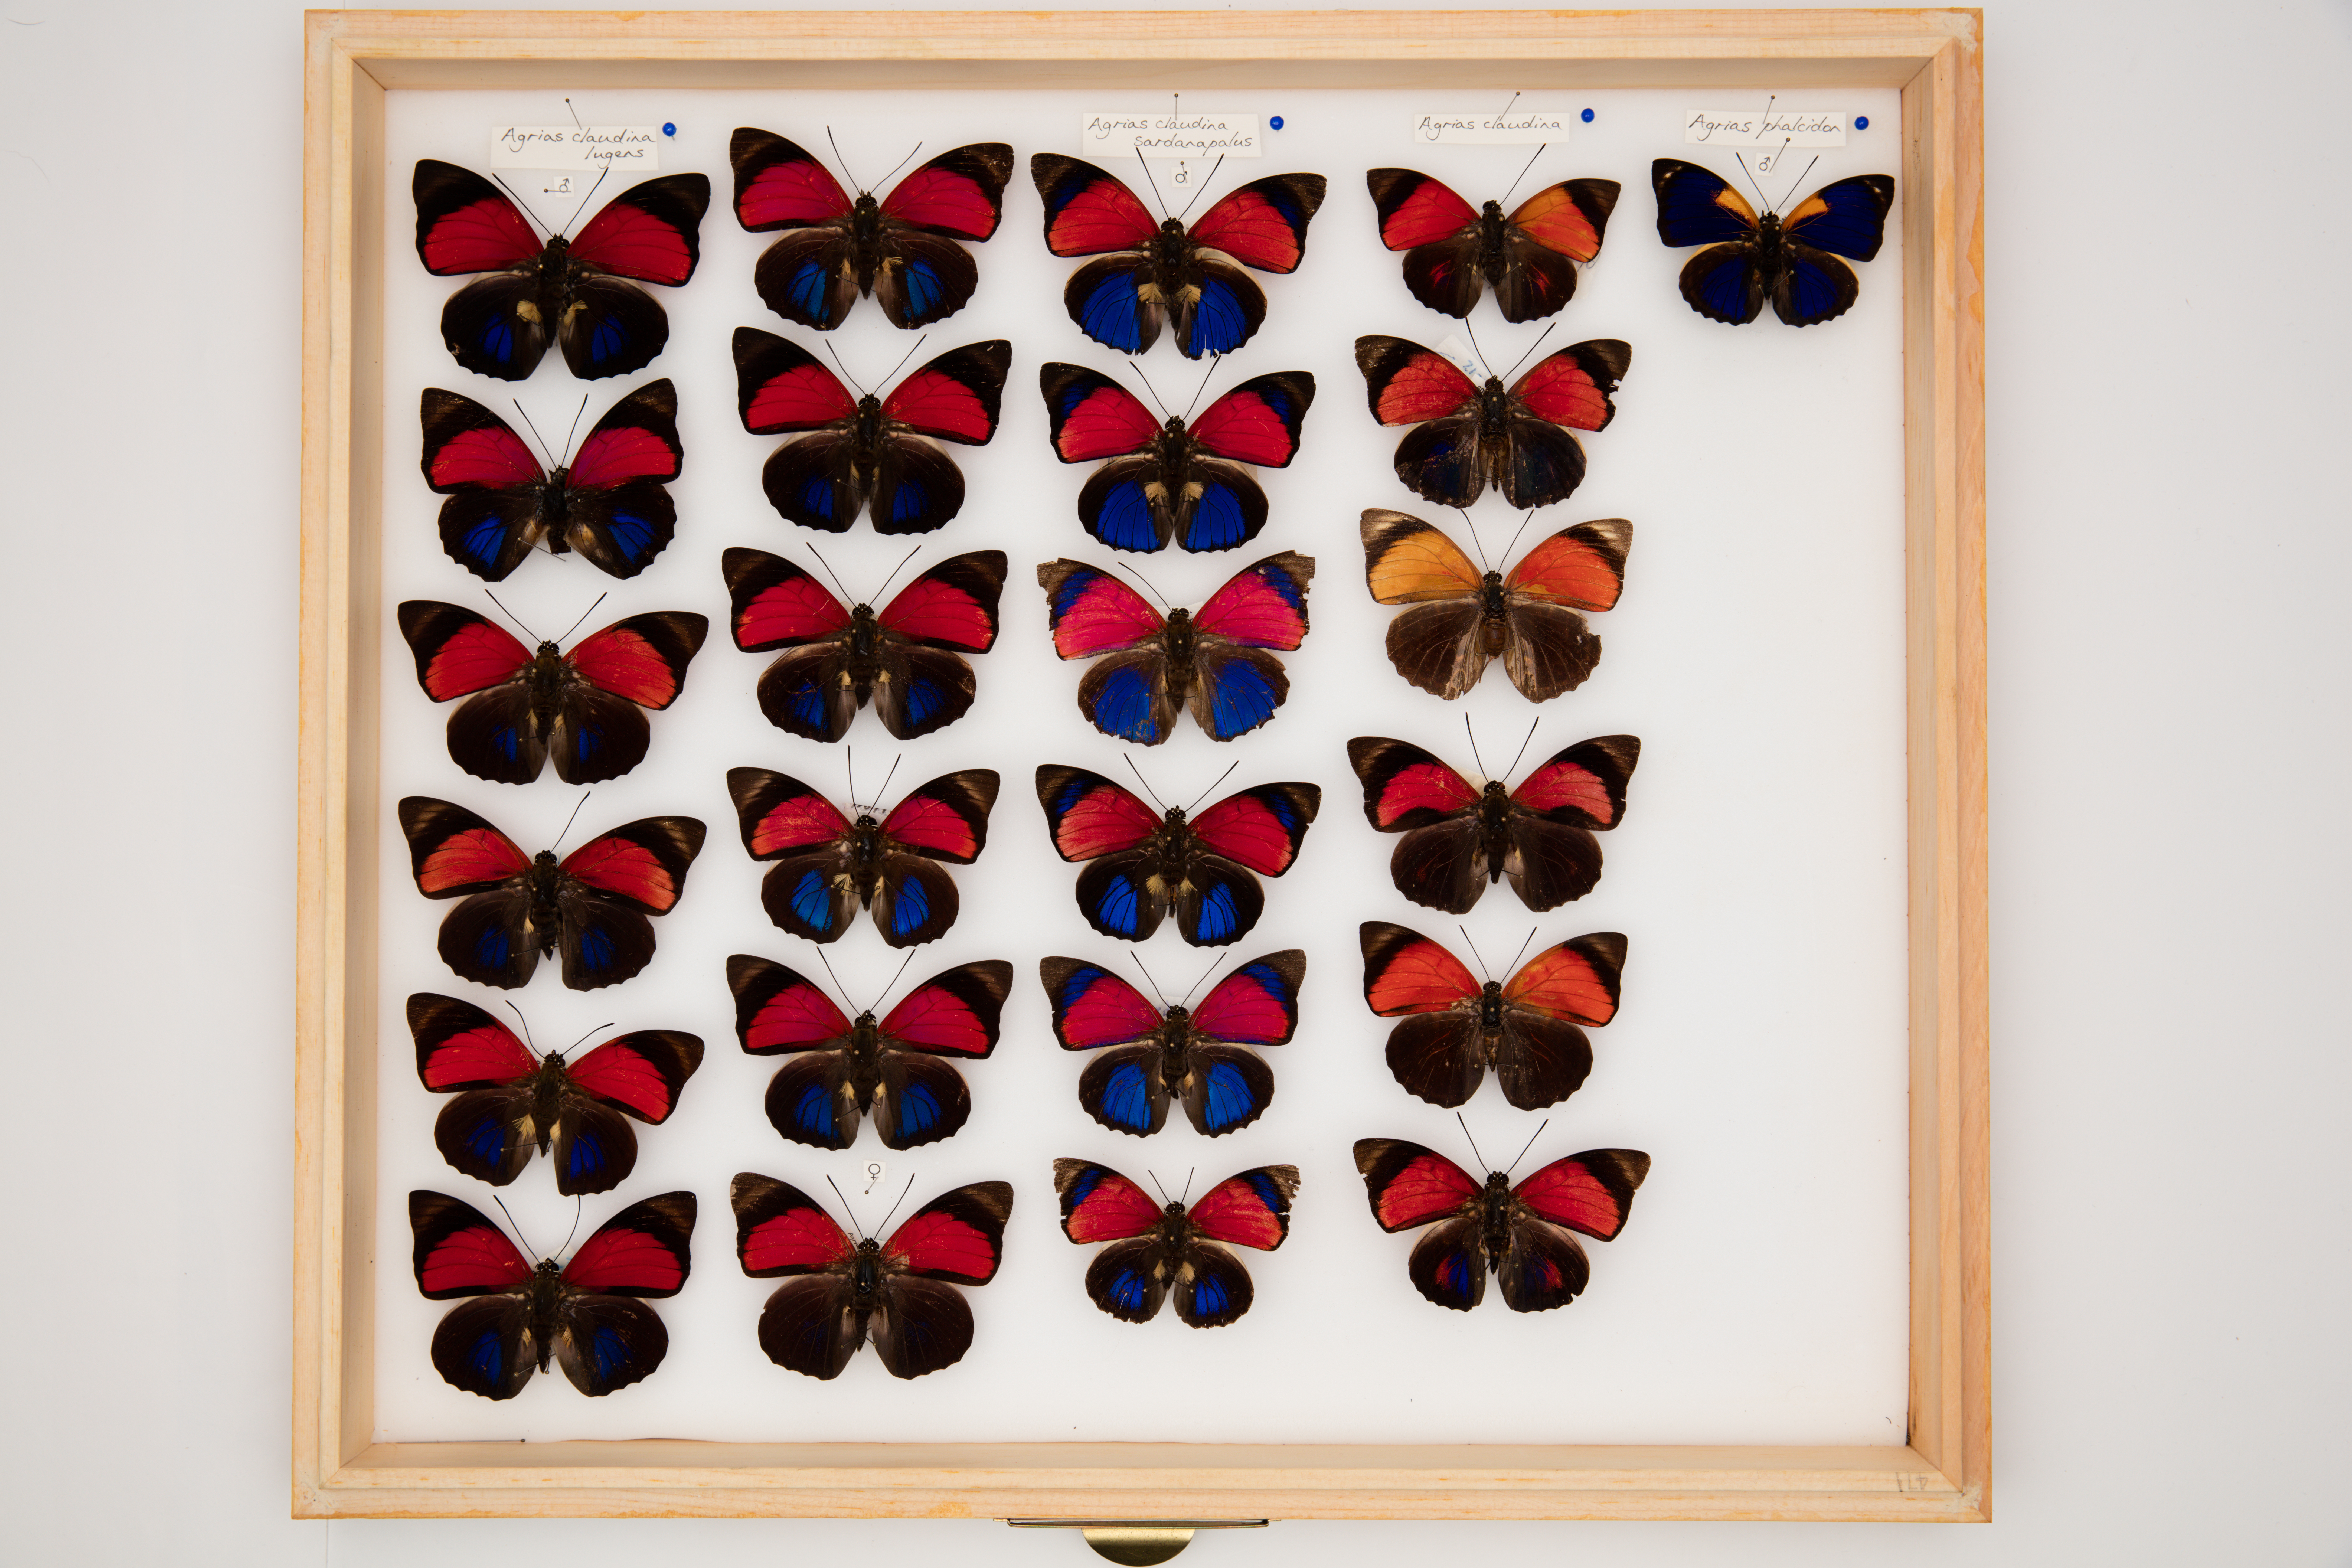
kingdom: Animalia
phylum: Arthropoda
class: Insecta
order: Lepidoptera
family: Nymphalidae
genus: Agrias
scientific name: Agrias claudia
